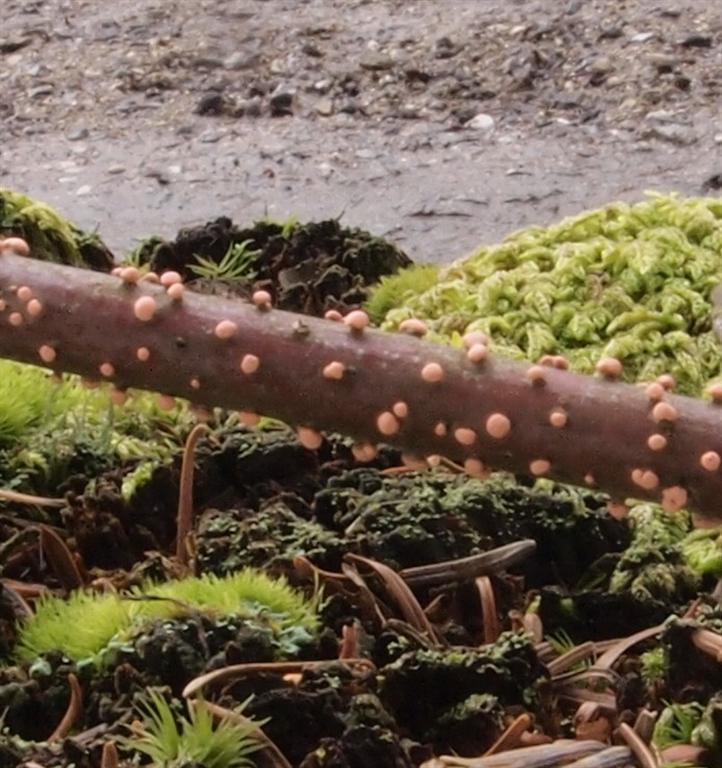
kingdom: Fungi
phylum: Ascomycota
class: Sordariomycetes
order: Hypocreales
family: Nectriaceae
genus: Nectria
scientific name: Nectria cinnabarina
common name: almindelig cinnobersvamp
